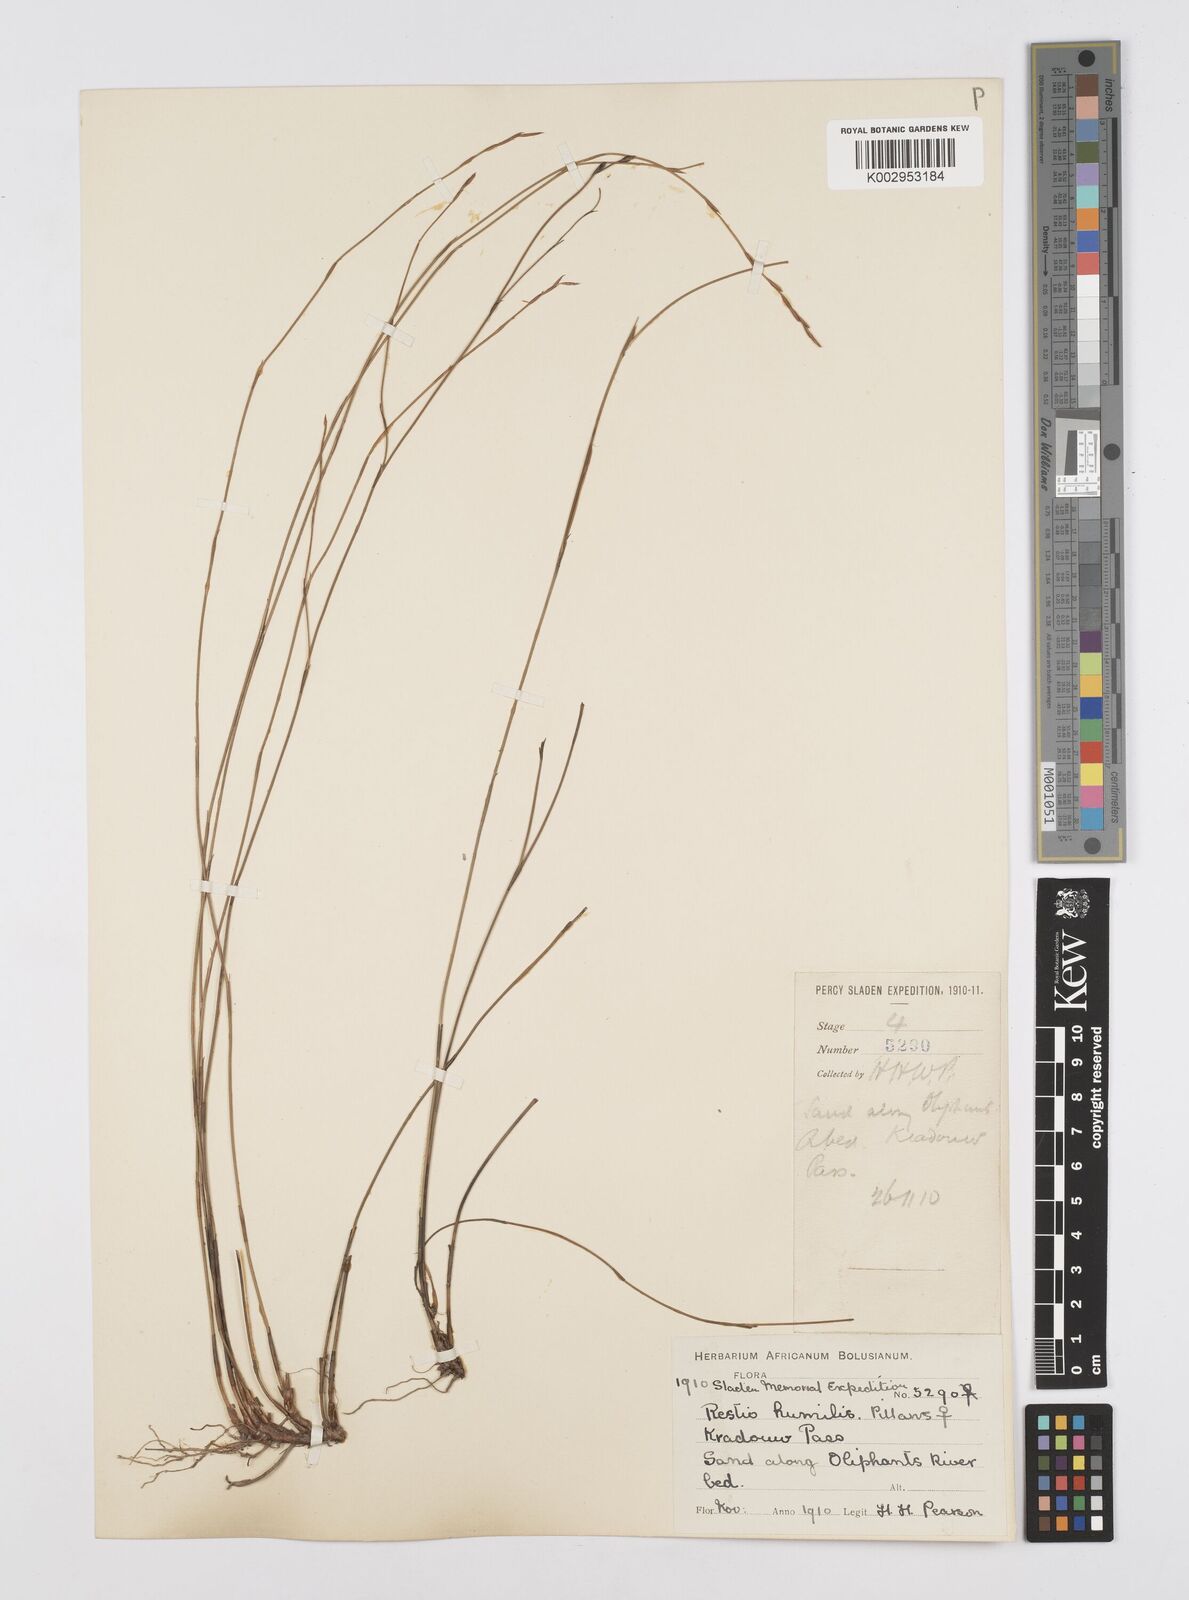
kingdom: Plantae
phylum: Tracheophyta
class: Liliopsida
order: Poales
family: Restionaceae
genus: Restio
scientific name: Restio wallichii
